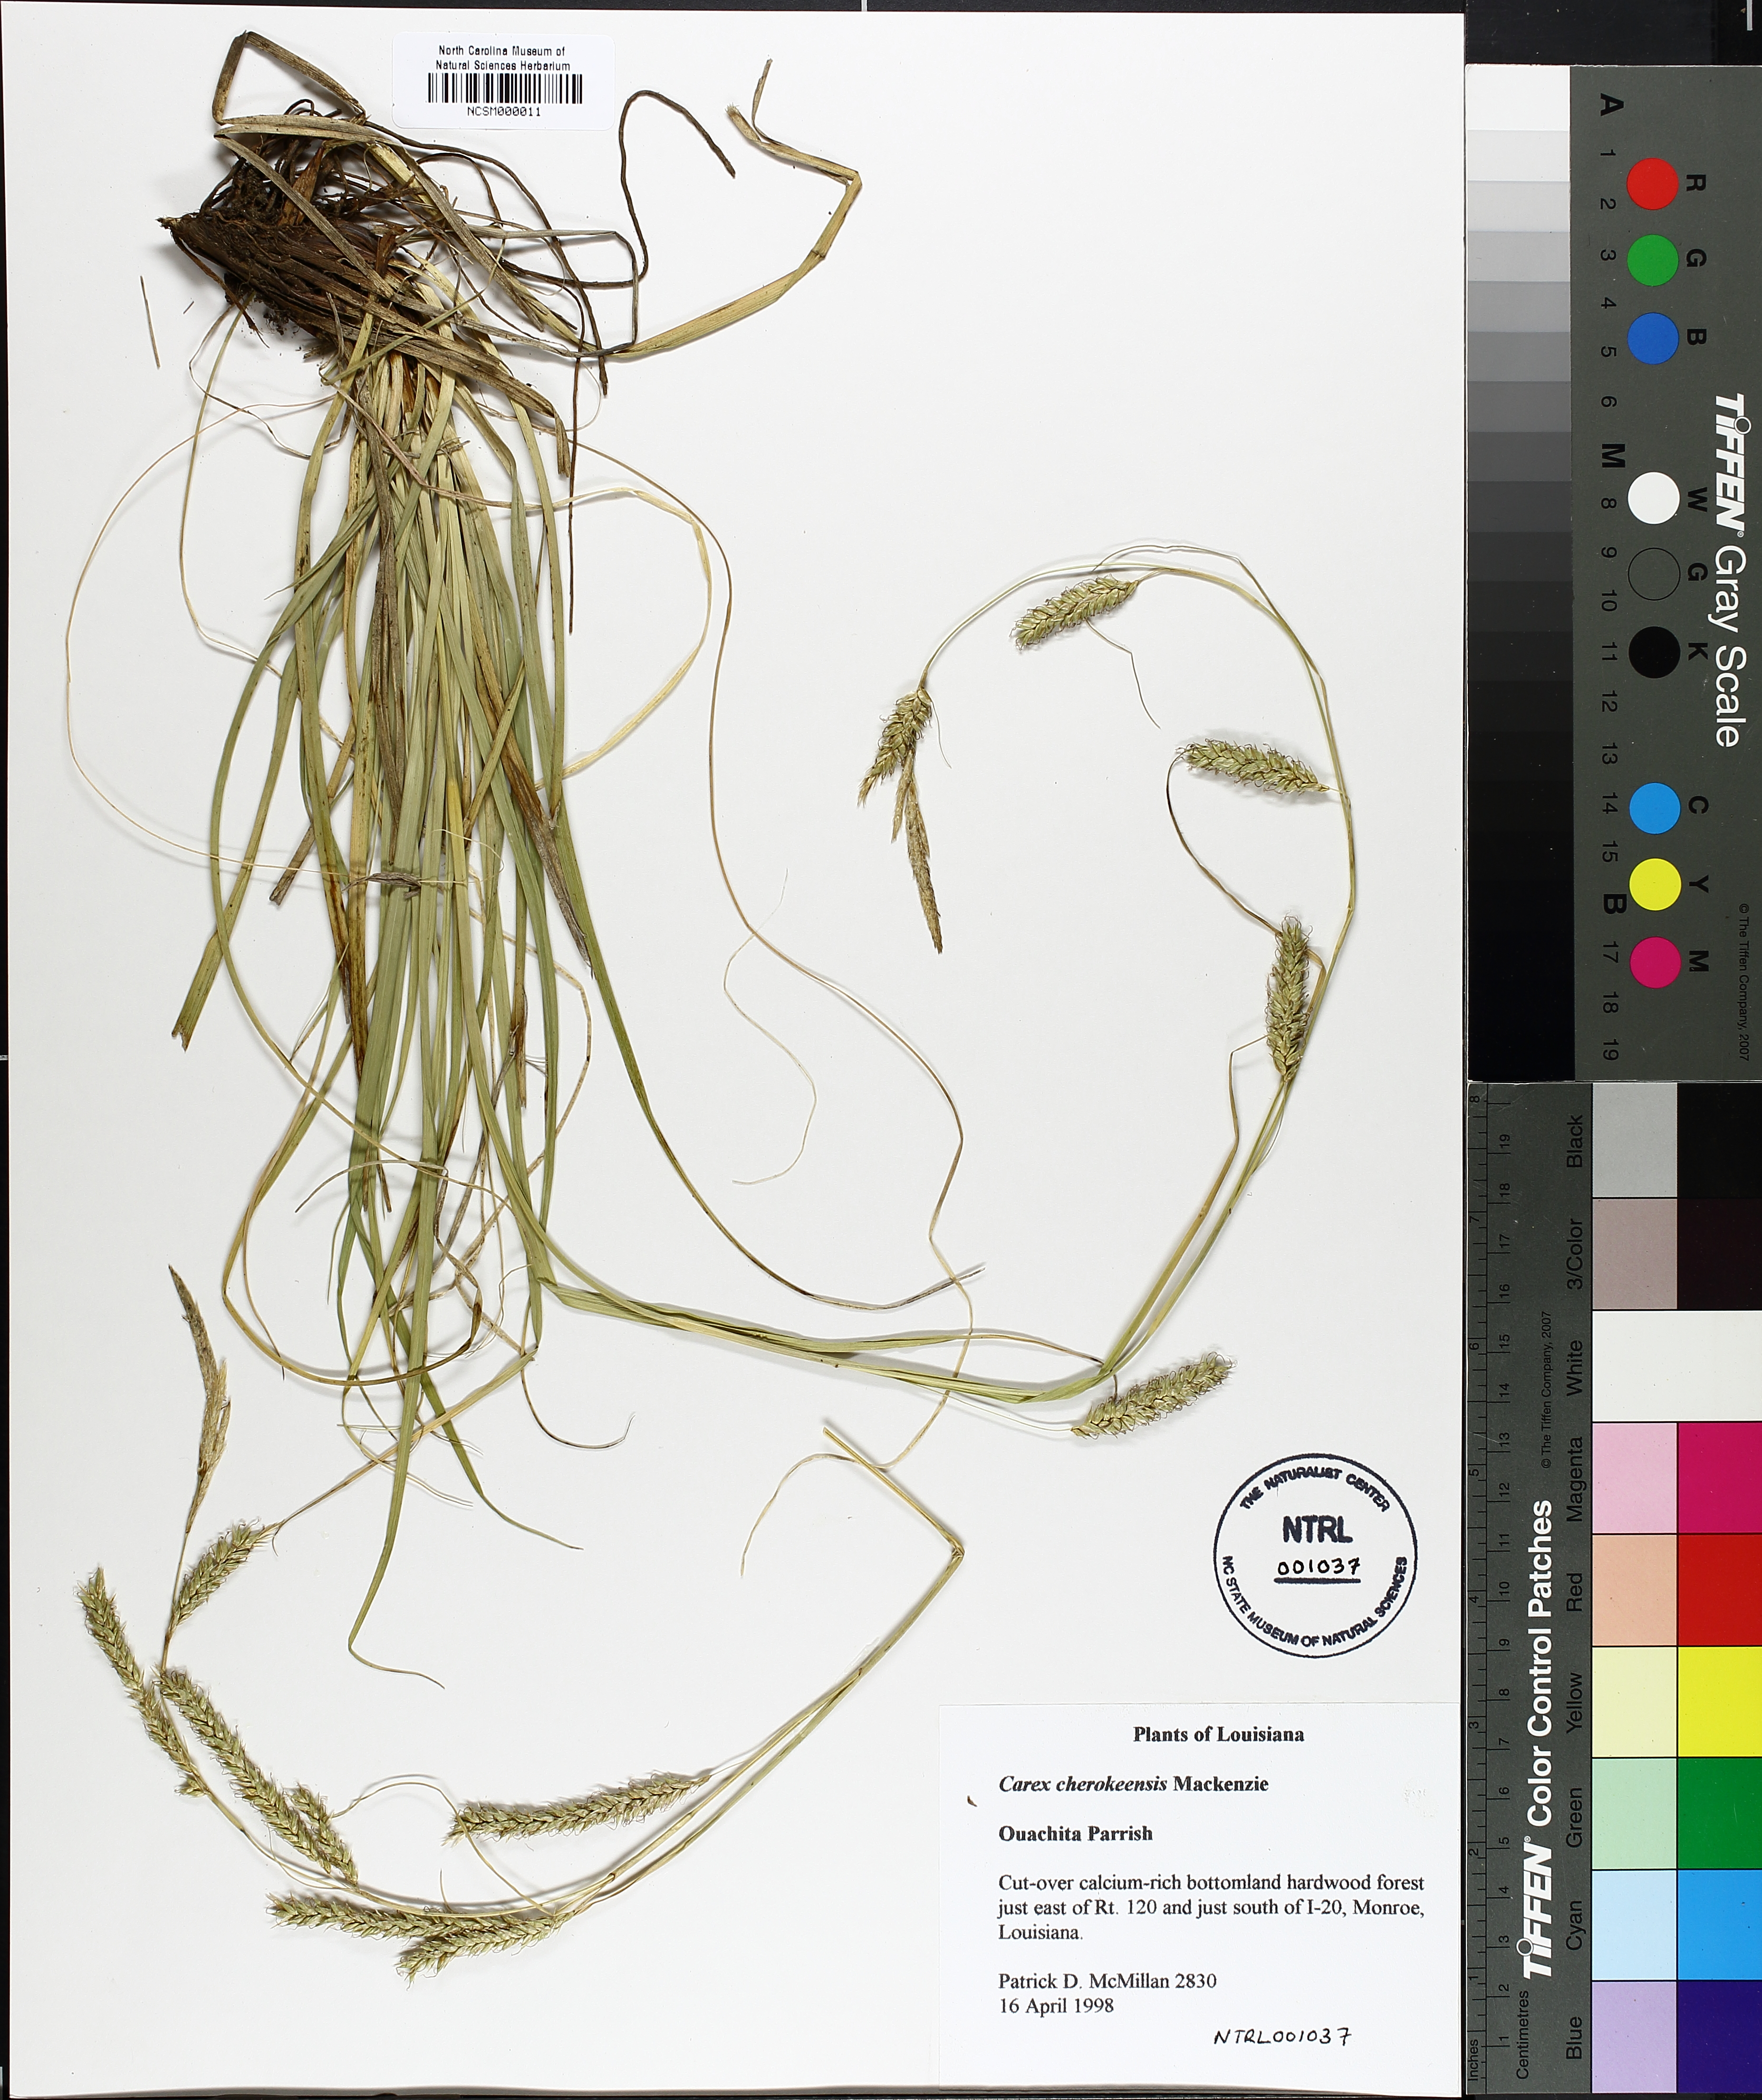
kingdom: Plantae
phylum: Tracheophyta
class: Liliopsida
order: Poales
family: Cyperaceae
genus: Carex
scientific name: Carex cherokeensis
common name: Cherokee sedge
